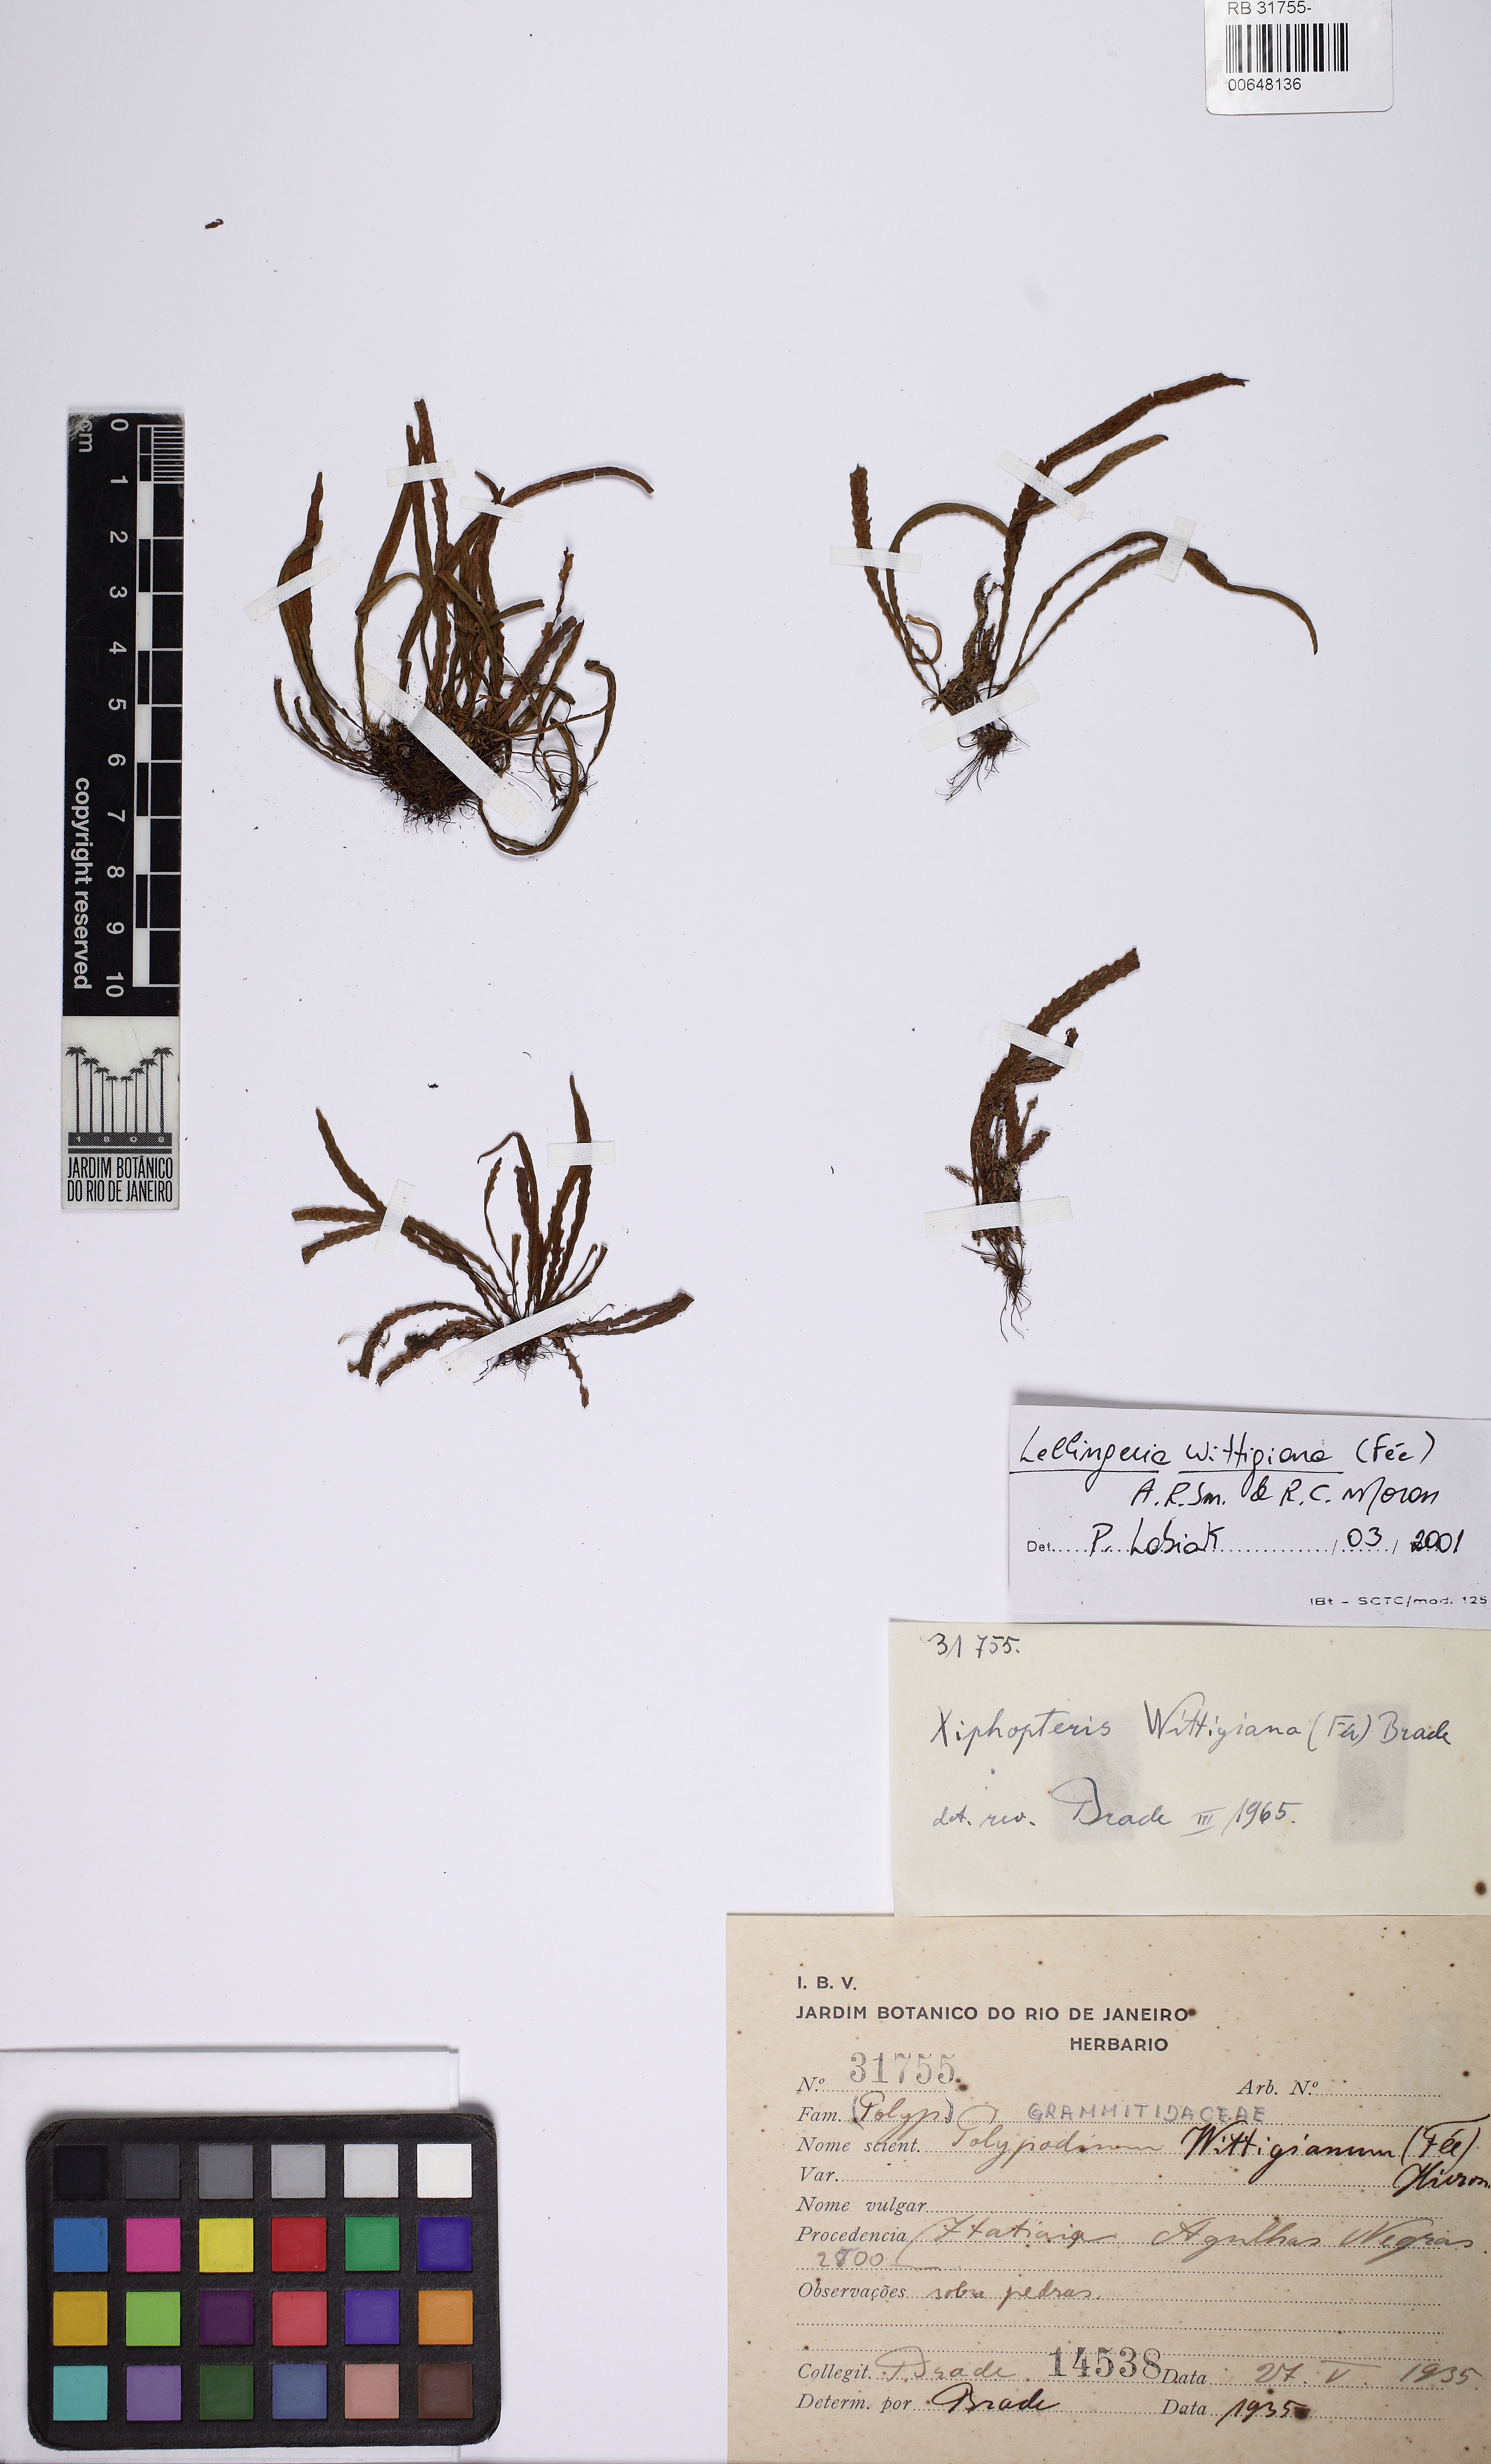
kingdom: Plantae
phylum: Tracheophyta
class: Polypodiopsida
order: Polypodiales
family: Polypodiaceae
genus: Stenogrammitis
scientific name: Stenogrammitis wittigiana
